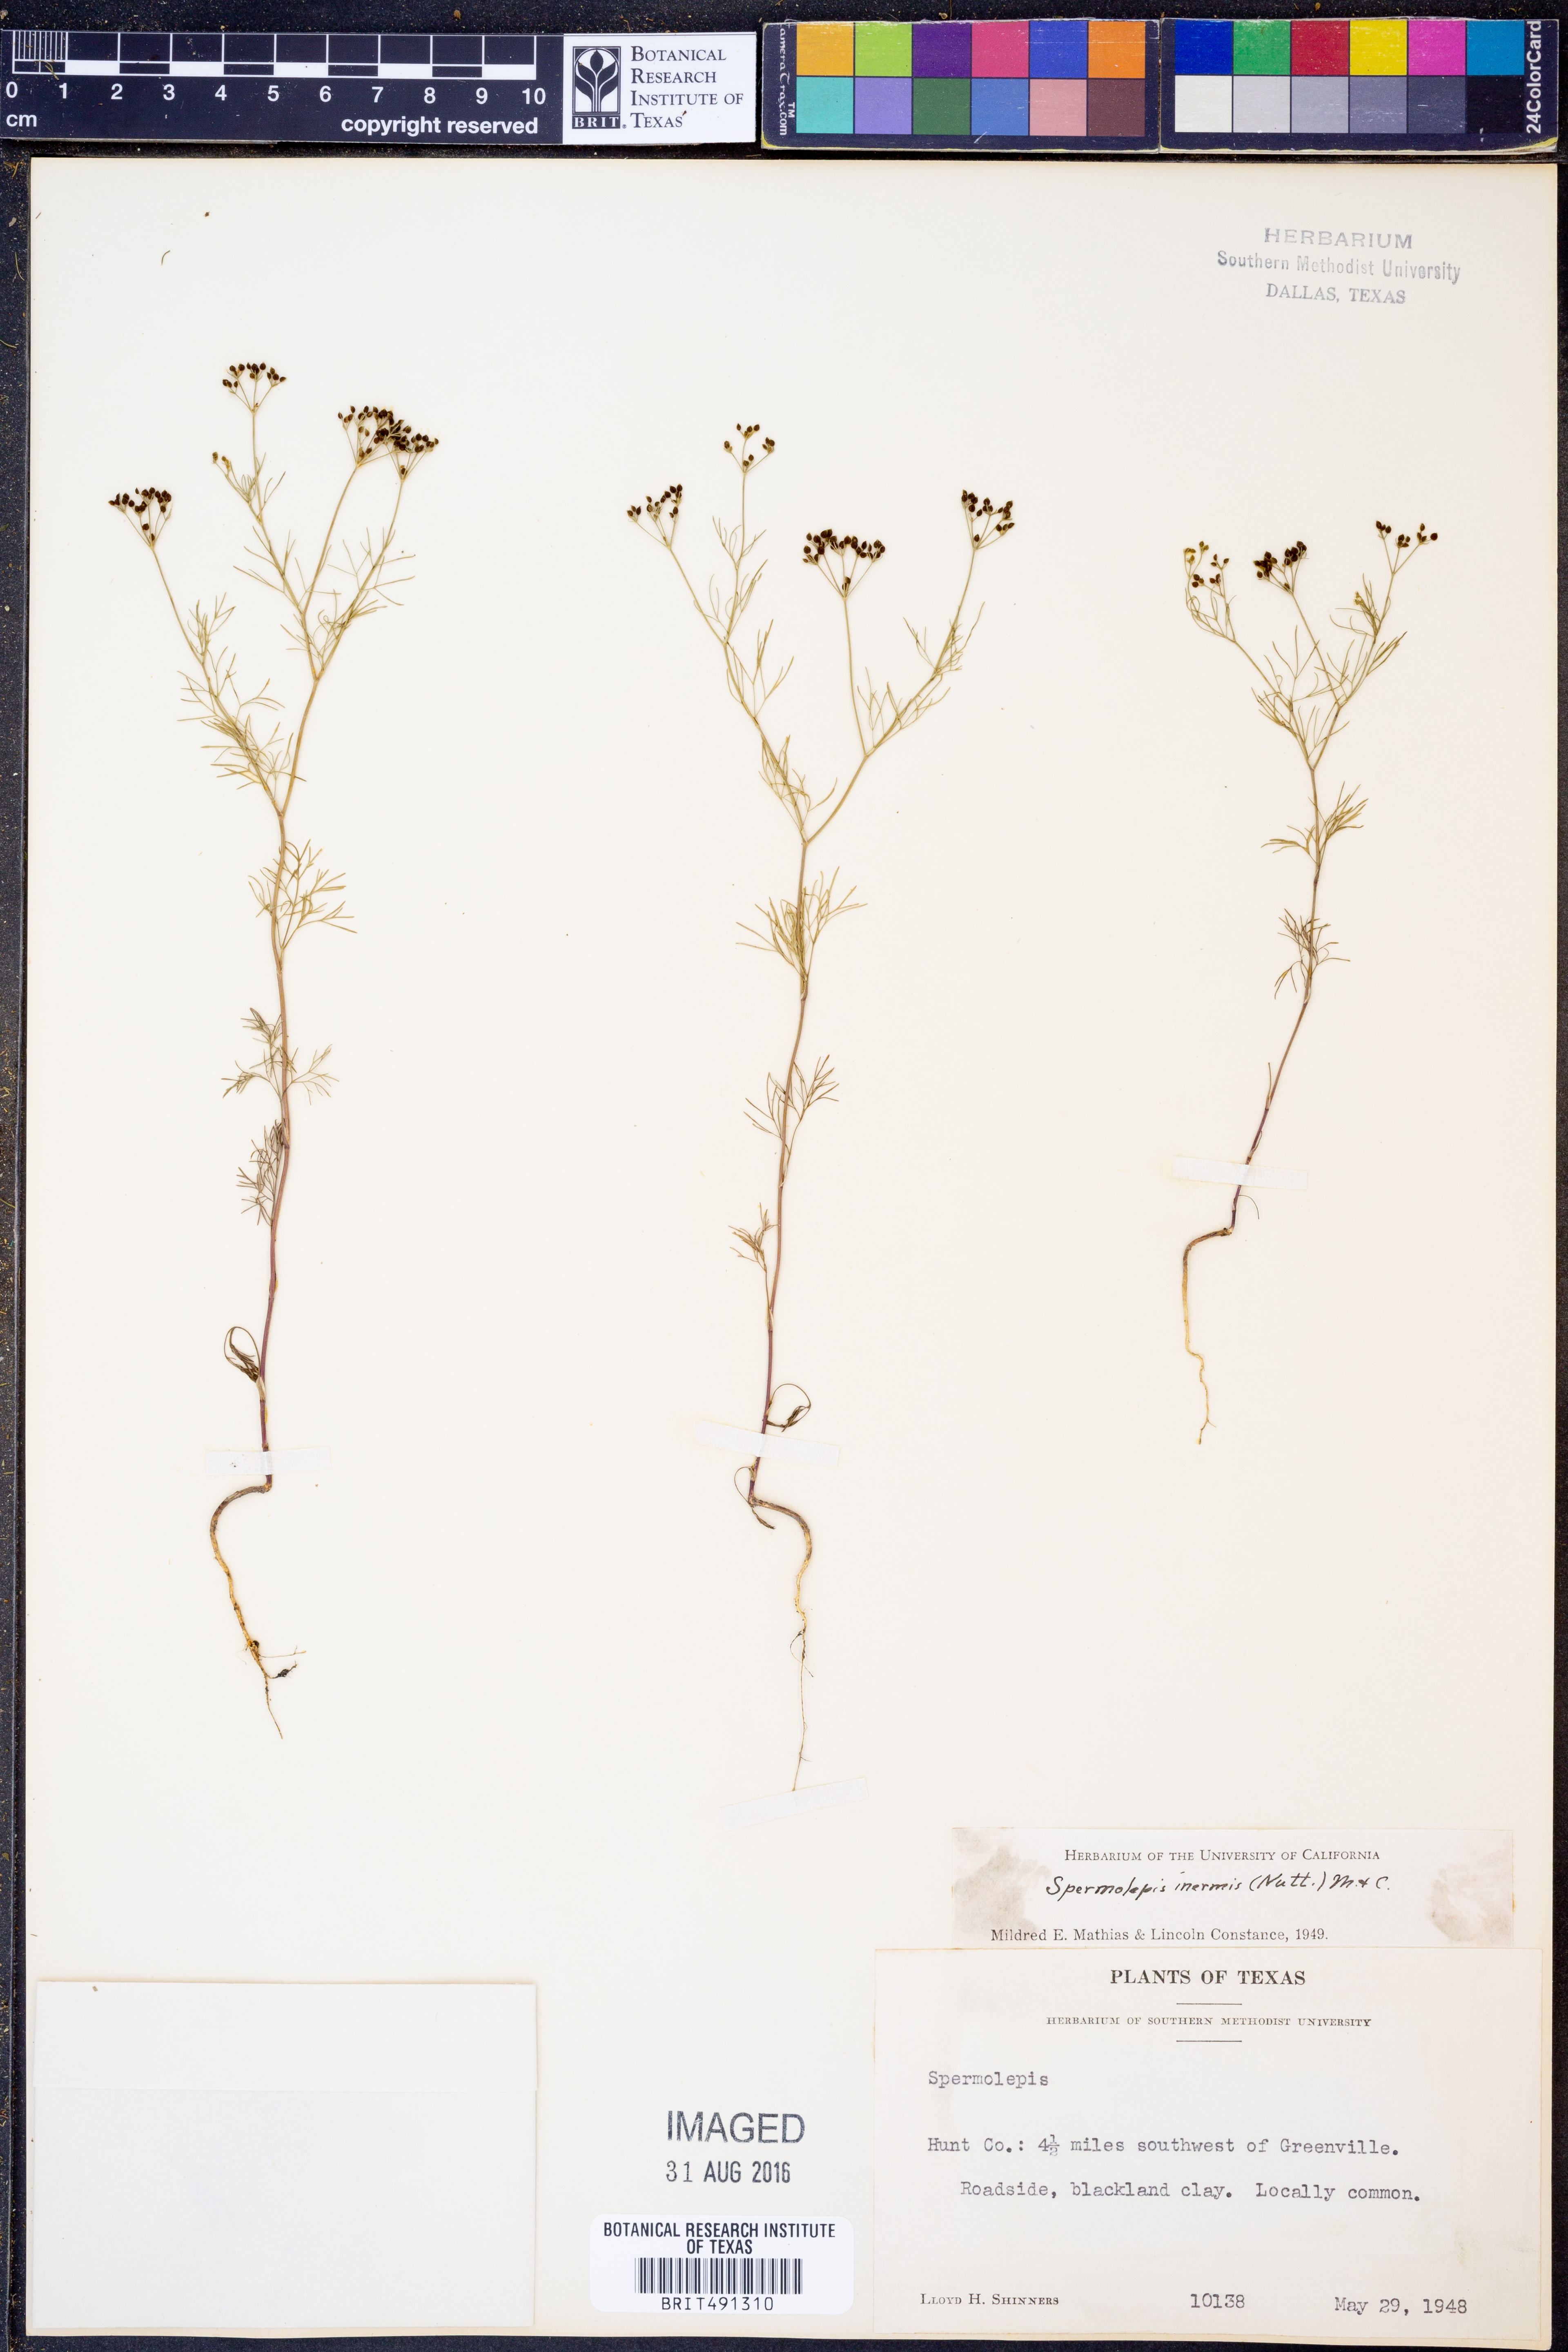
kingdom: Plantae
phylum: Tracheophyta
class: Magnoliopsida
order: Apiales
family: Apiaceae
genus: Spermolepis
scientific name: Spermolepis inermis
